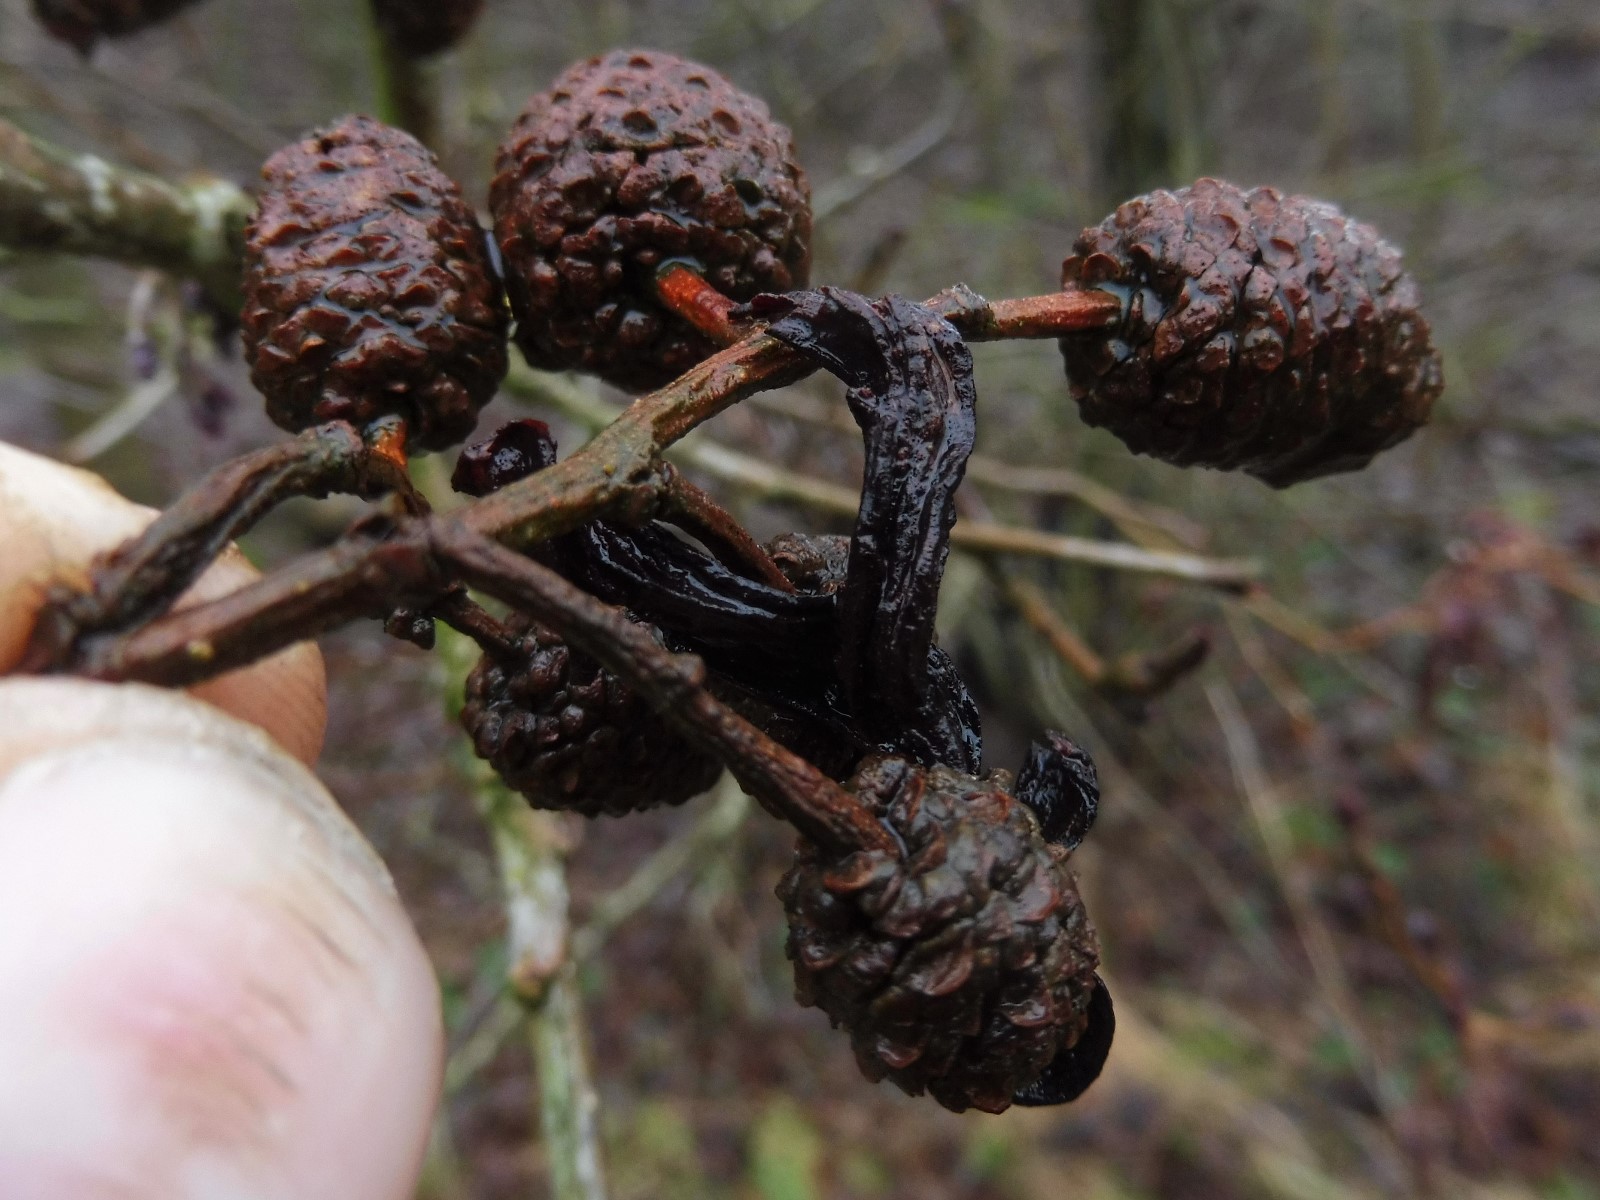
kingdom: Fungi
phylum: Ascomycota
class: Taphrinomycetes
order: Taphrinales
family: Taphrinaceae
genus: Taphrina
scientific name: Taphrina alni
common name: Alder tongue
